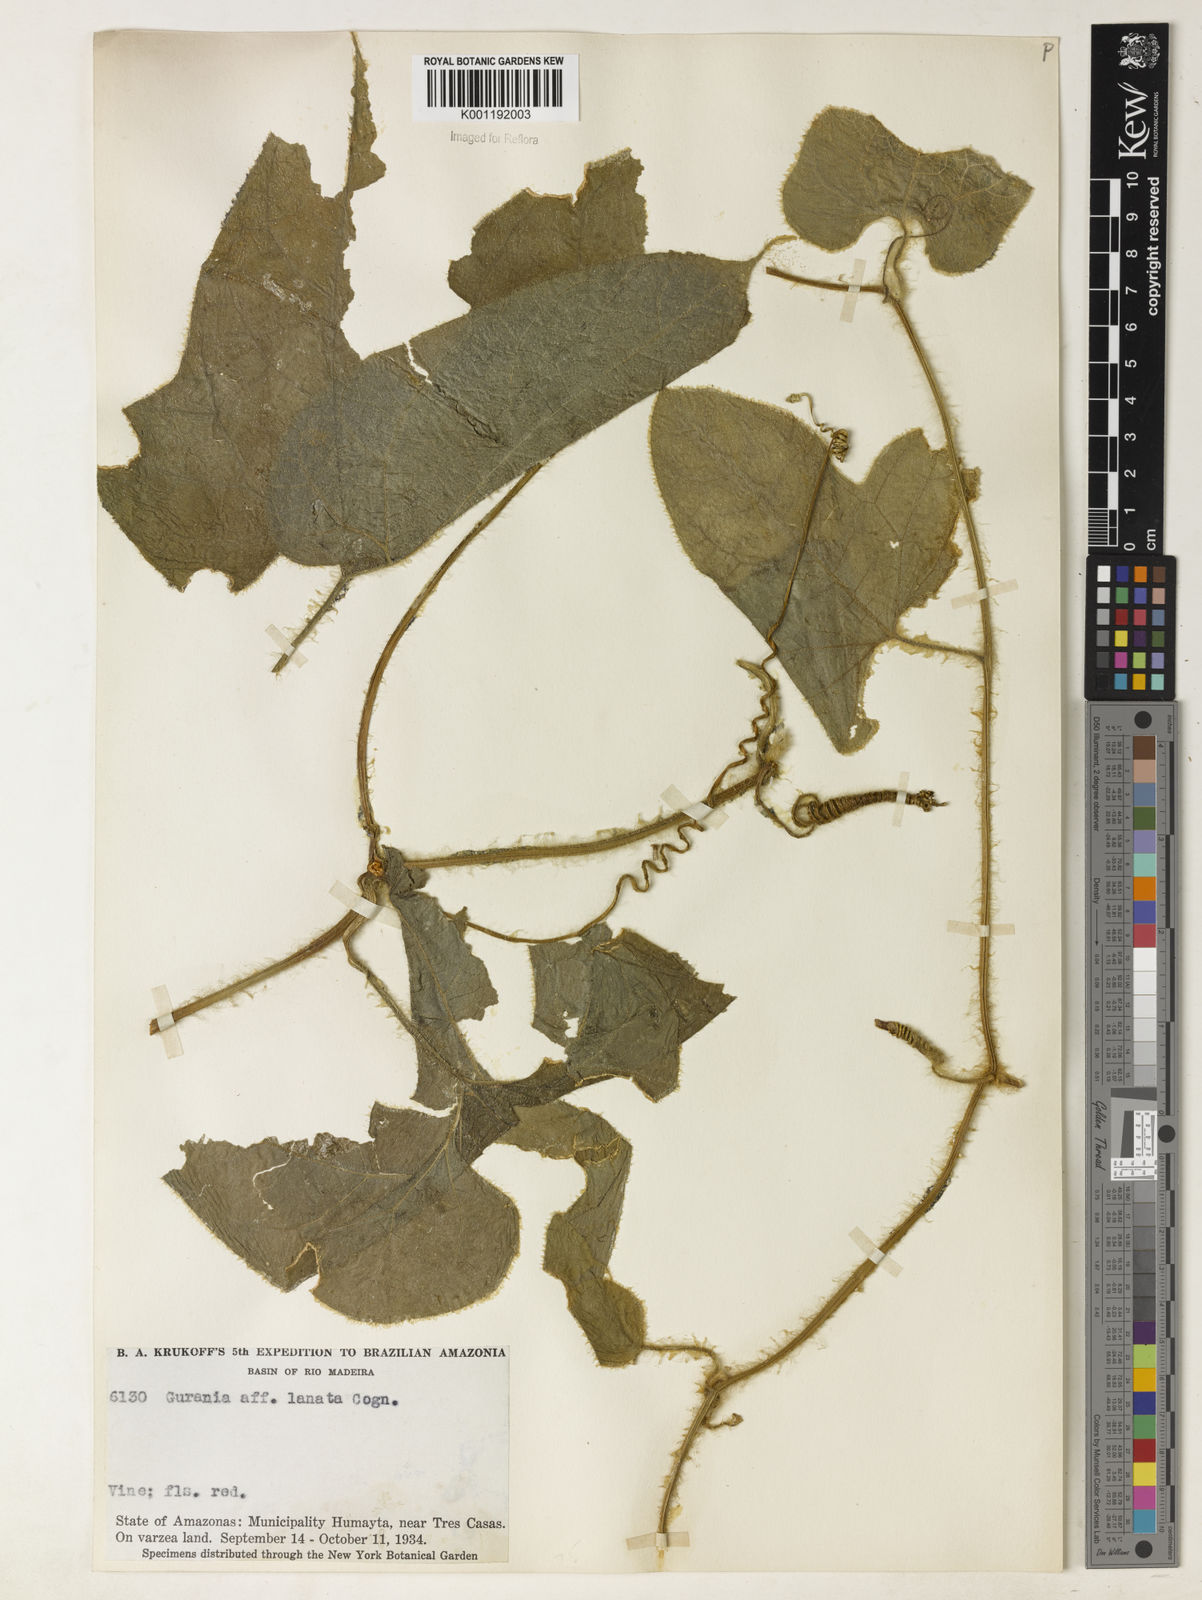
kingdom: Plantae
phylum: Tracheophyta
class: Magnoliopsida
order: Cucurbitales
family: Cucurbitaceae
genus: Gurania
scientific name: Gurania eriantha
